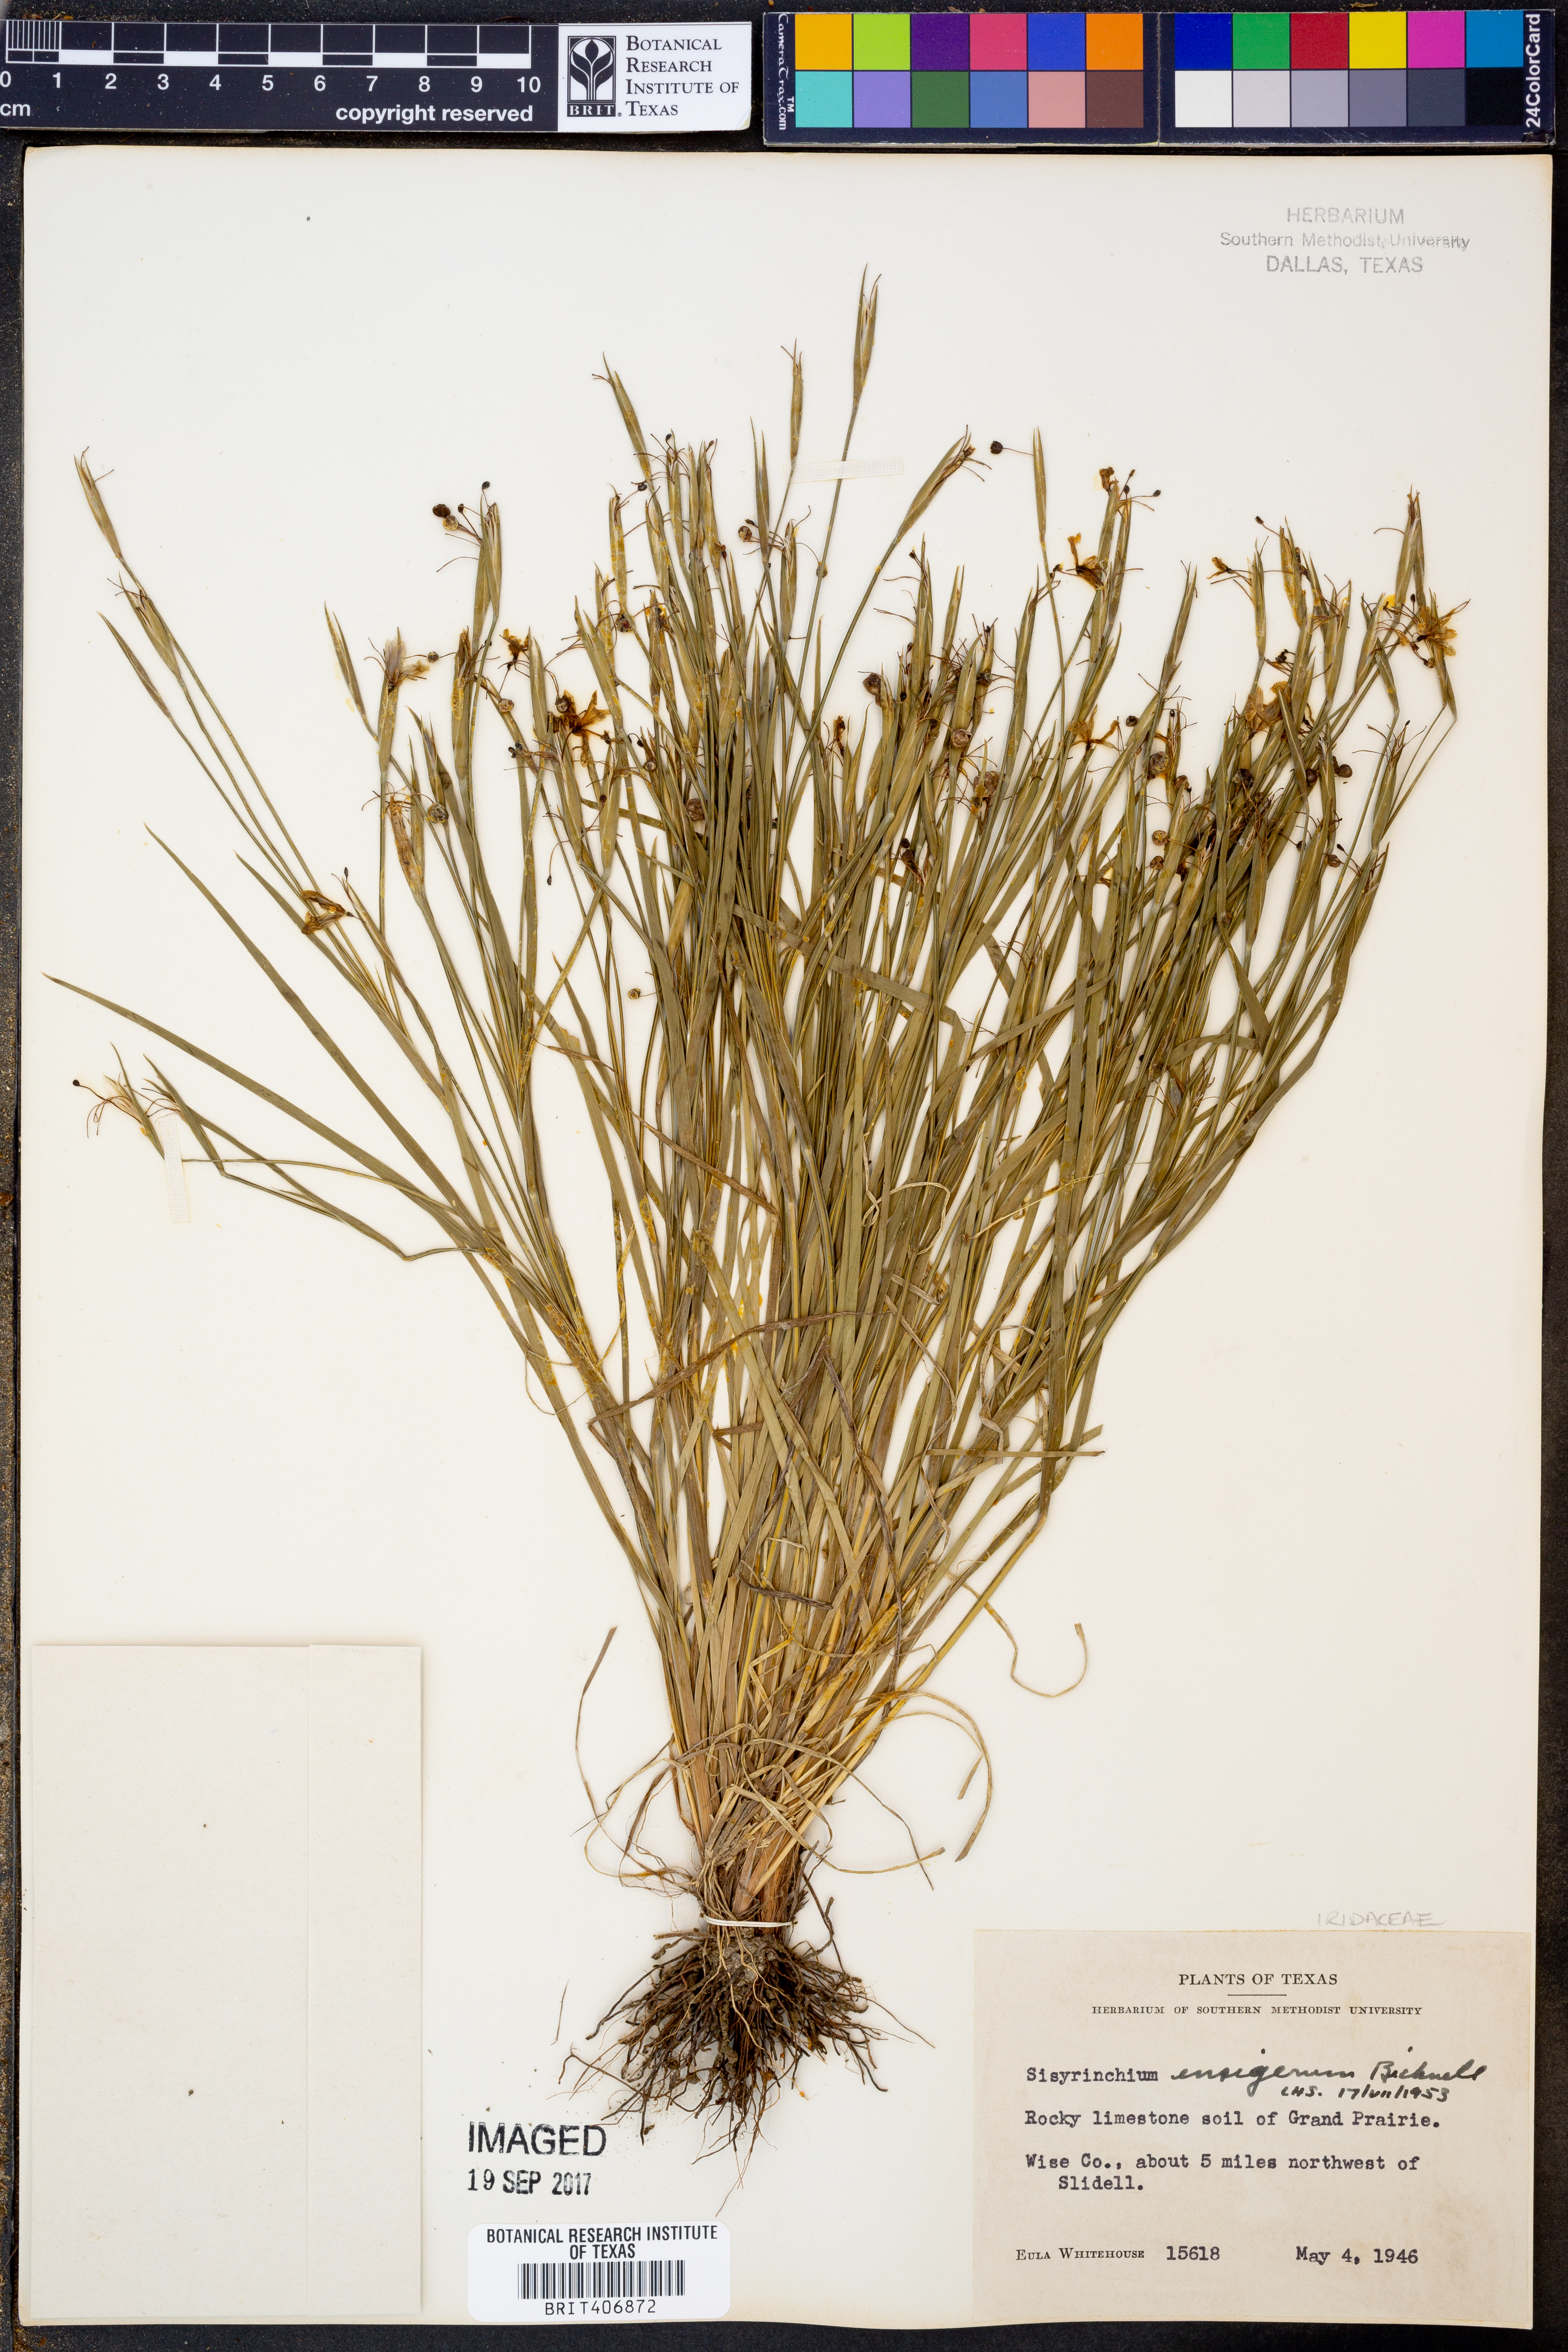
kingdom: Plantae
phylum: Tracheophyta
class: Liliopsida
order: Asparagales
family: Iridaceae
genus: Sisyrinchium
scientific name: Sisyrinchium ensigerum
